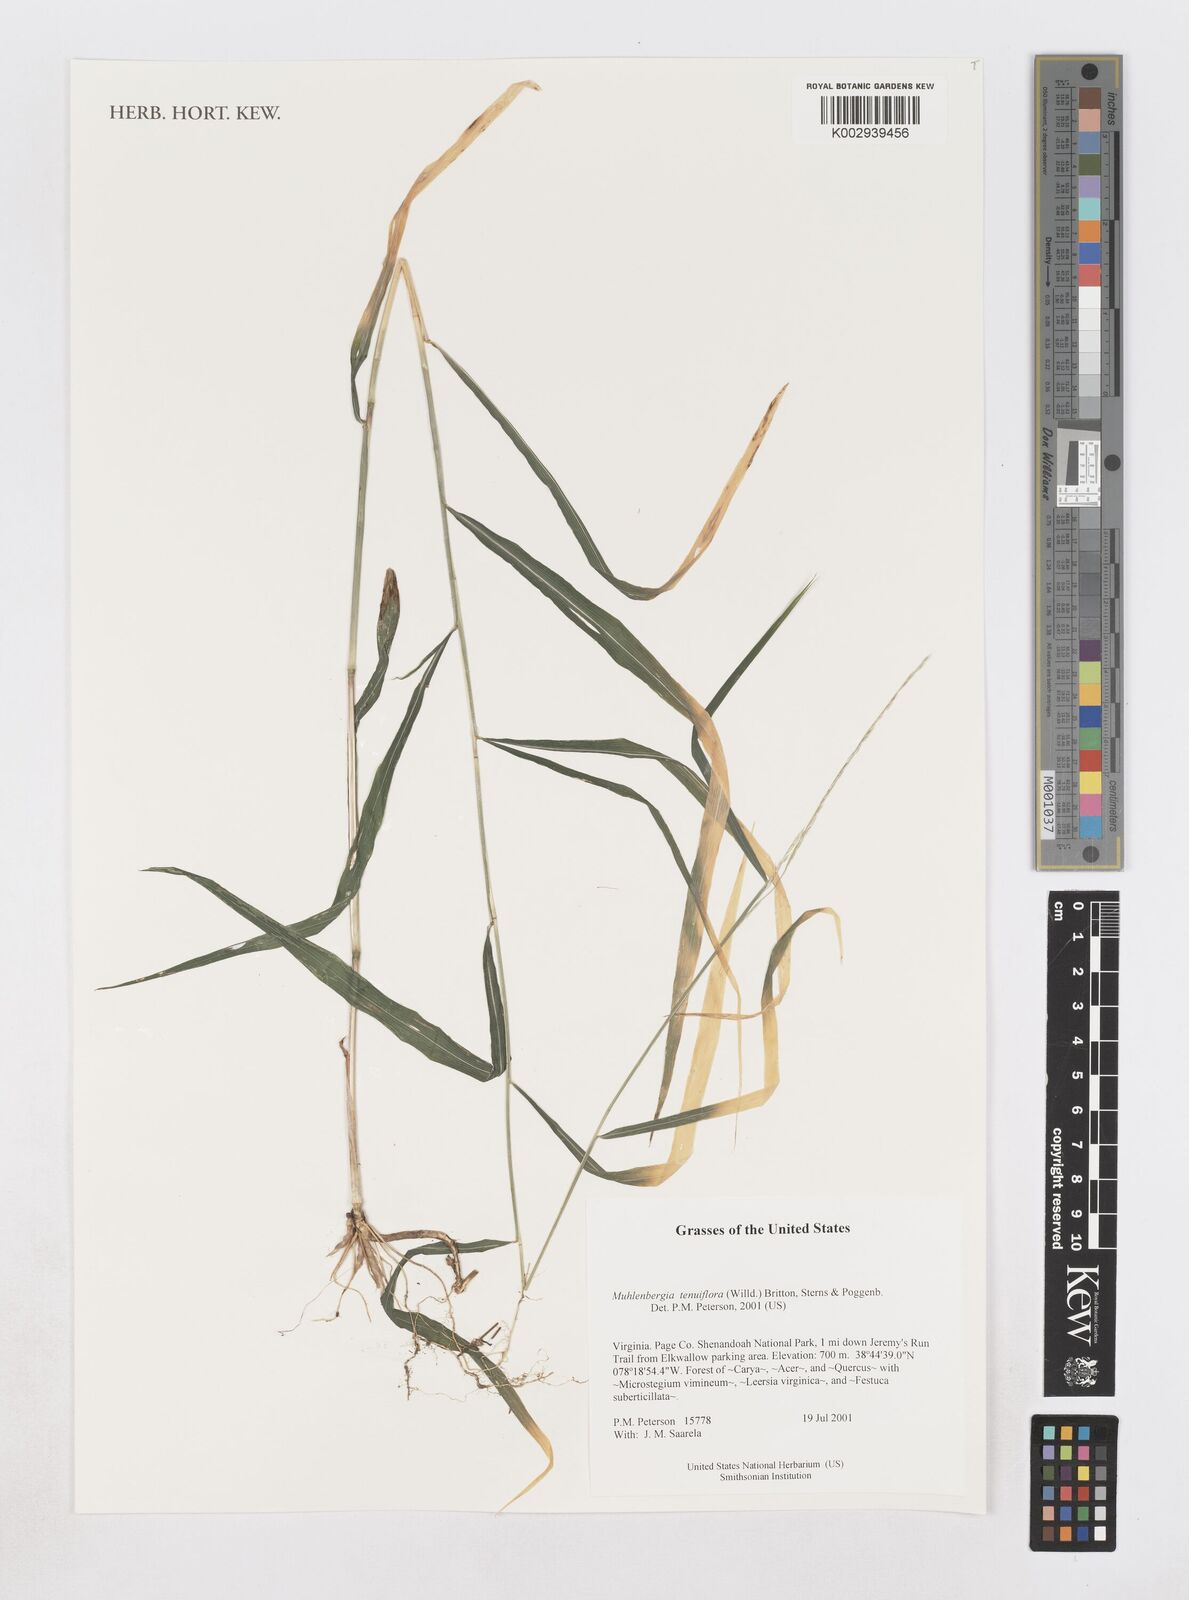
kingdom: Plantae
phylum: Tracheophyta
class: Liliopsida
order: Poales
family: Poaceae
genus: Muhlenbergia
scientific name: Muhlenbergia tenuiflora
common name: Slender muhly
